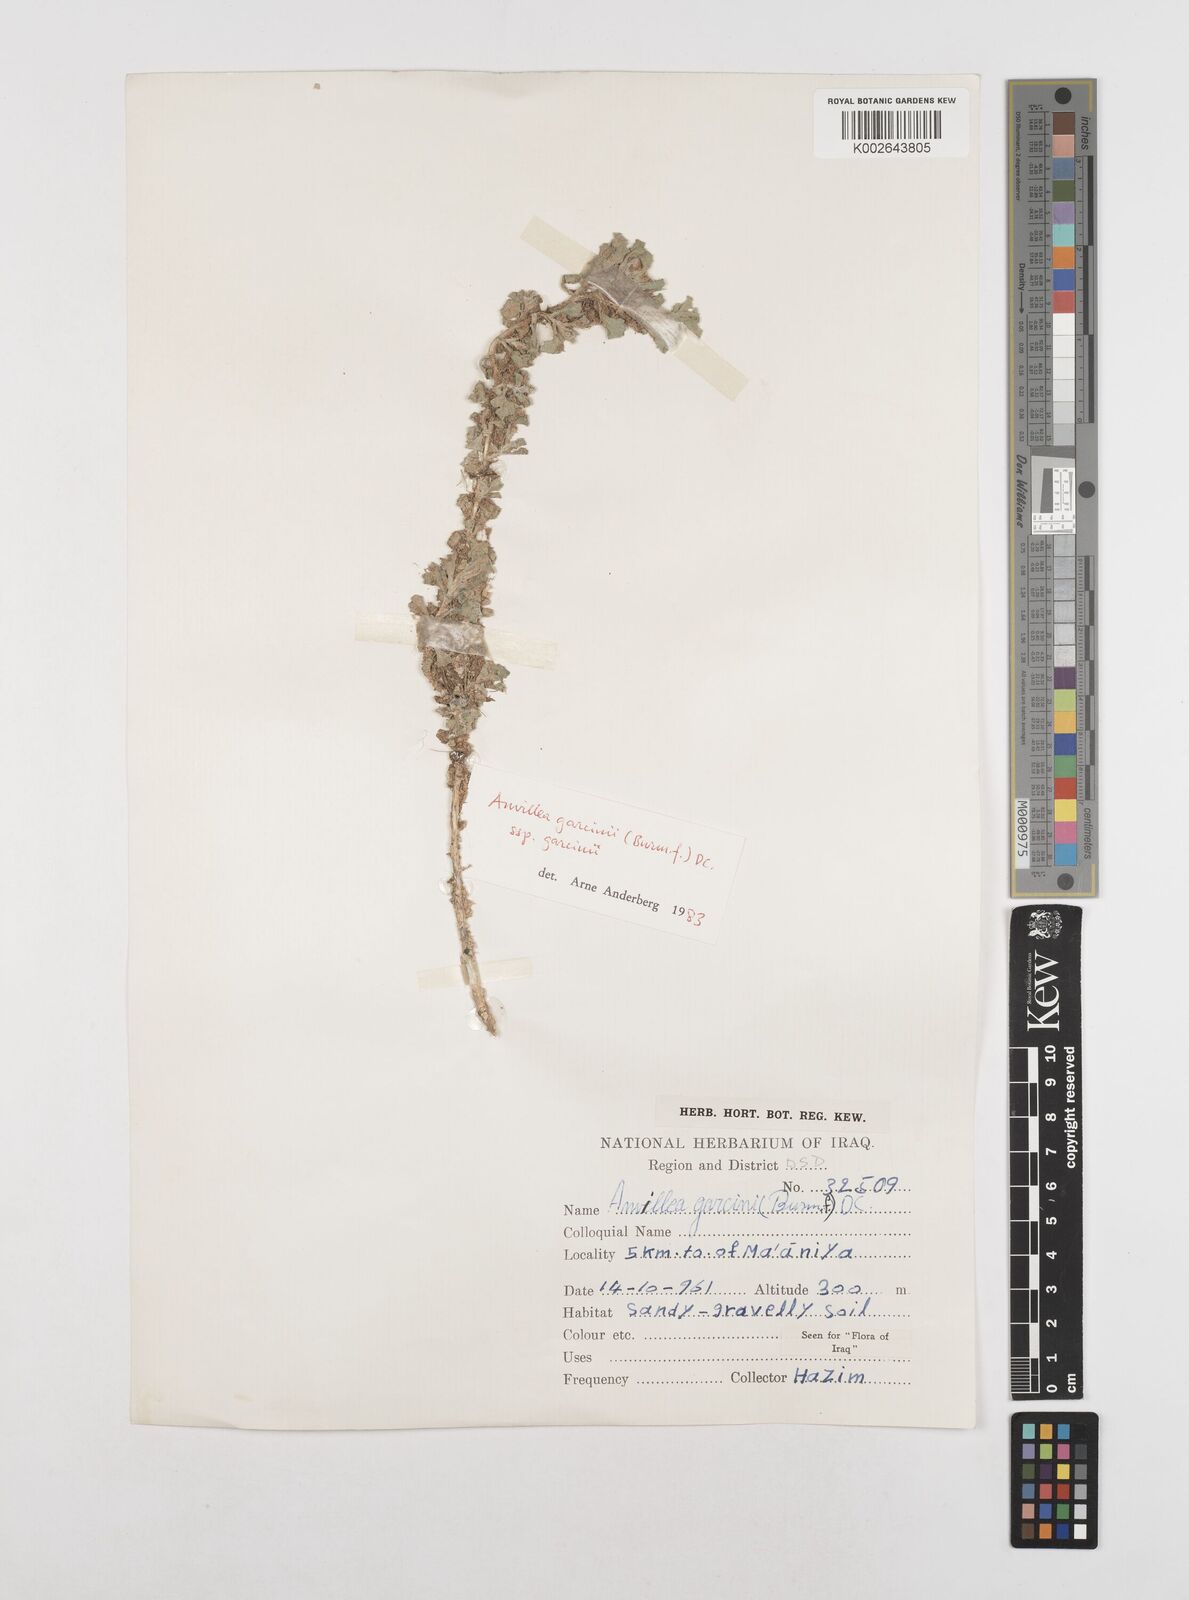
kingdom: Plantae
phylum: Tracheophyta
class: Magnoliopsida
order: Asterales
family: Asteraceae
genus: Anvillea
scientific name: Anvillea garcinii
